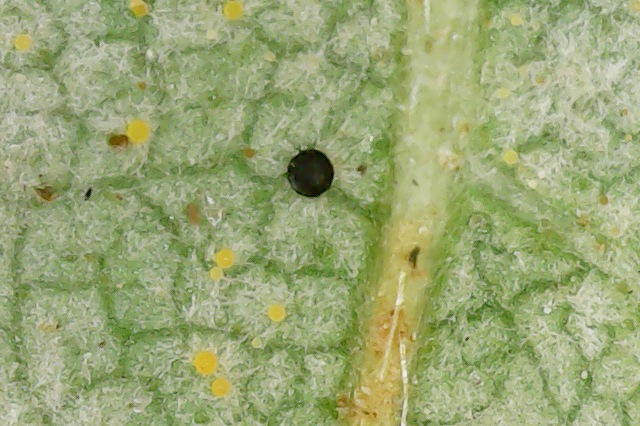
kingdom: Fungi
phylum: Ascomycota
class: Leotiomycetes
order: Helotiales
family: Erysiphaceae
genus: Phyllactinia
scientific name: Phyllactinia guttata
